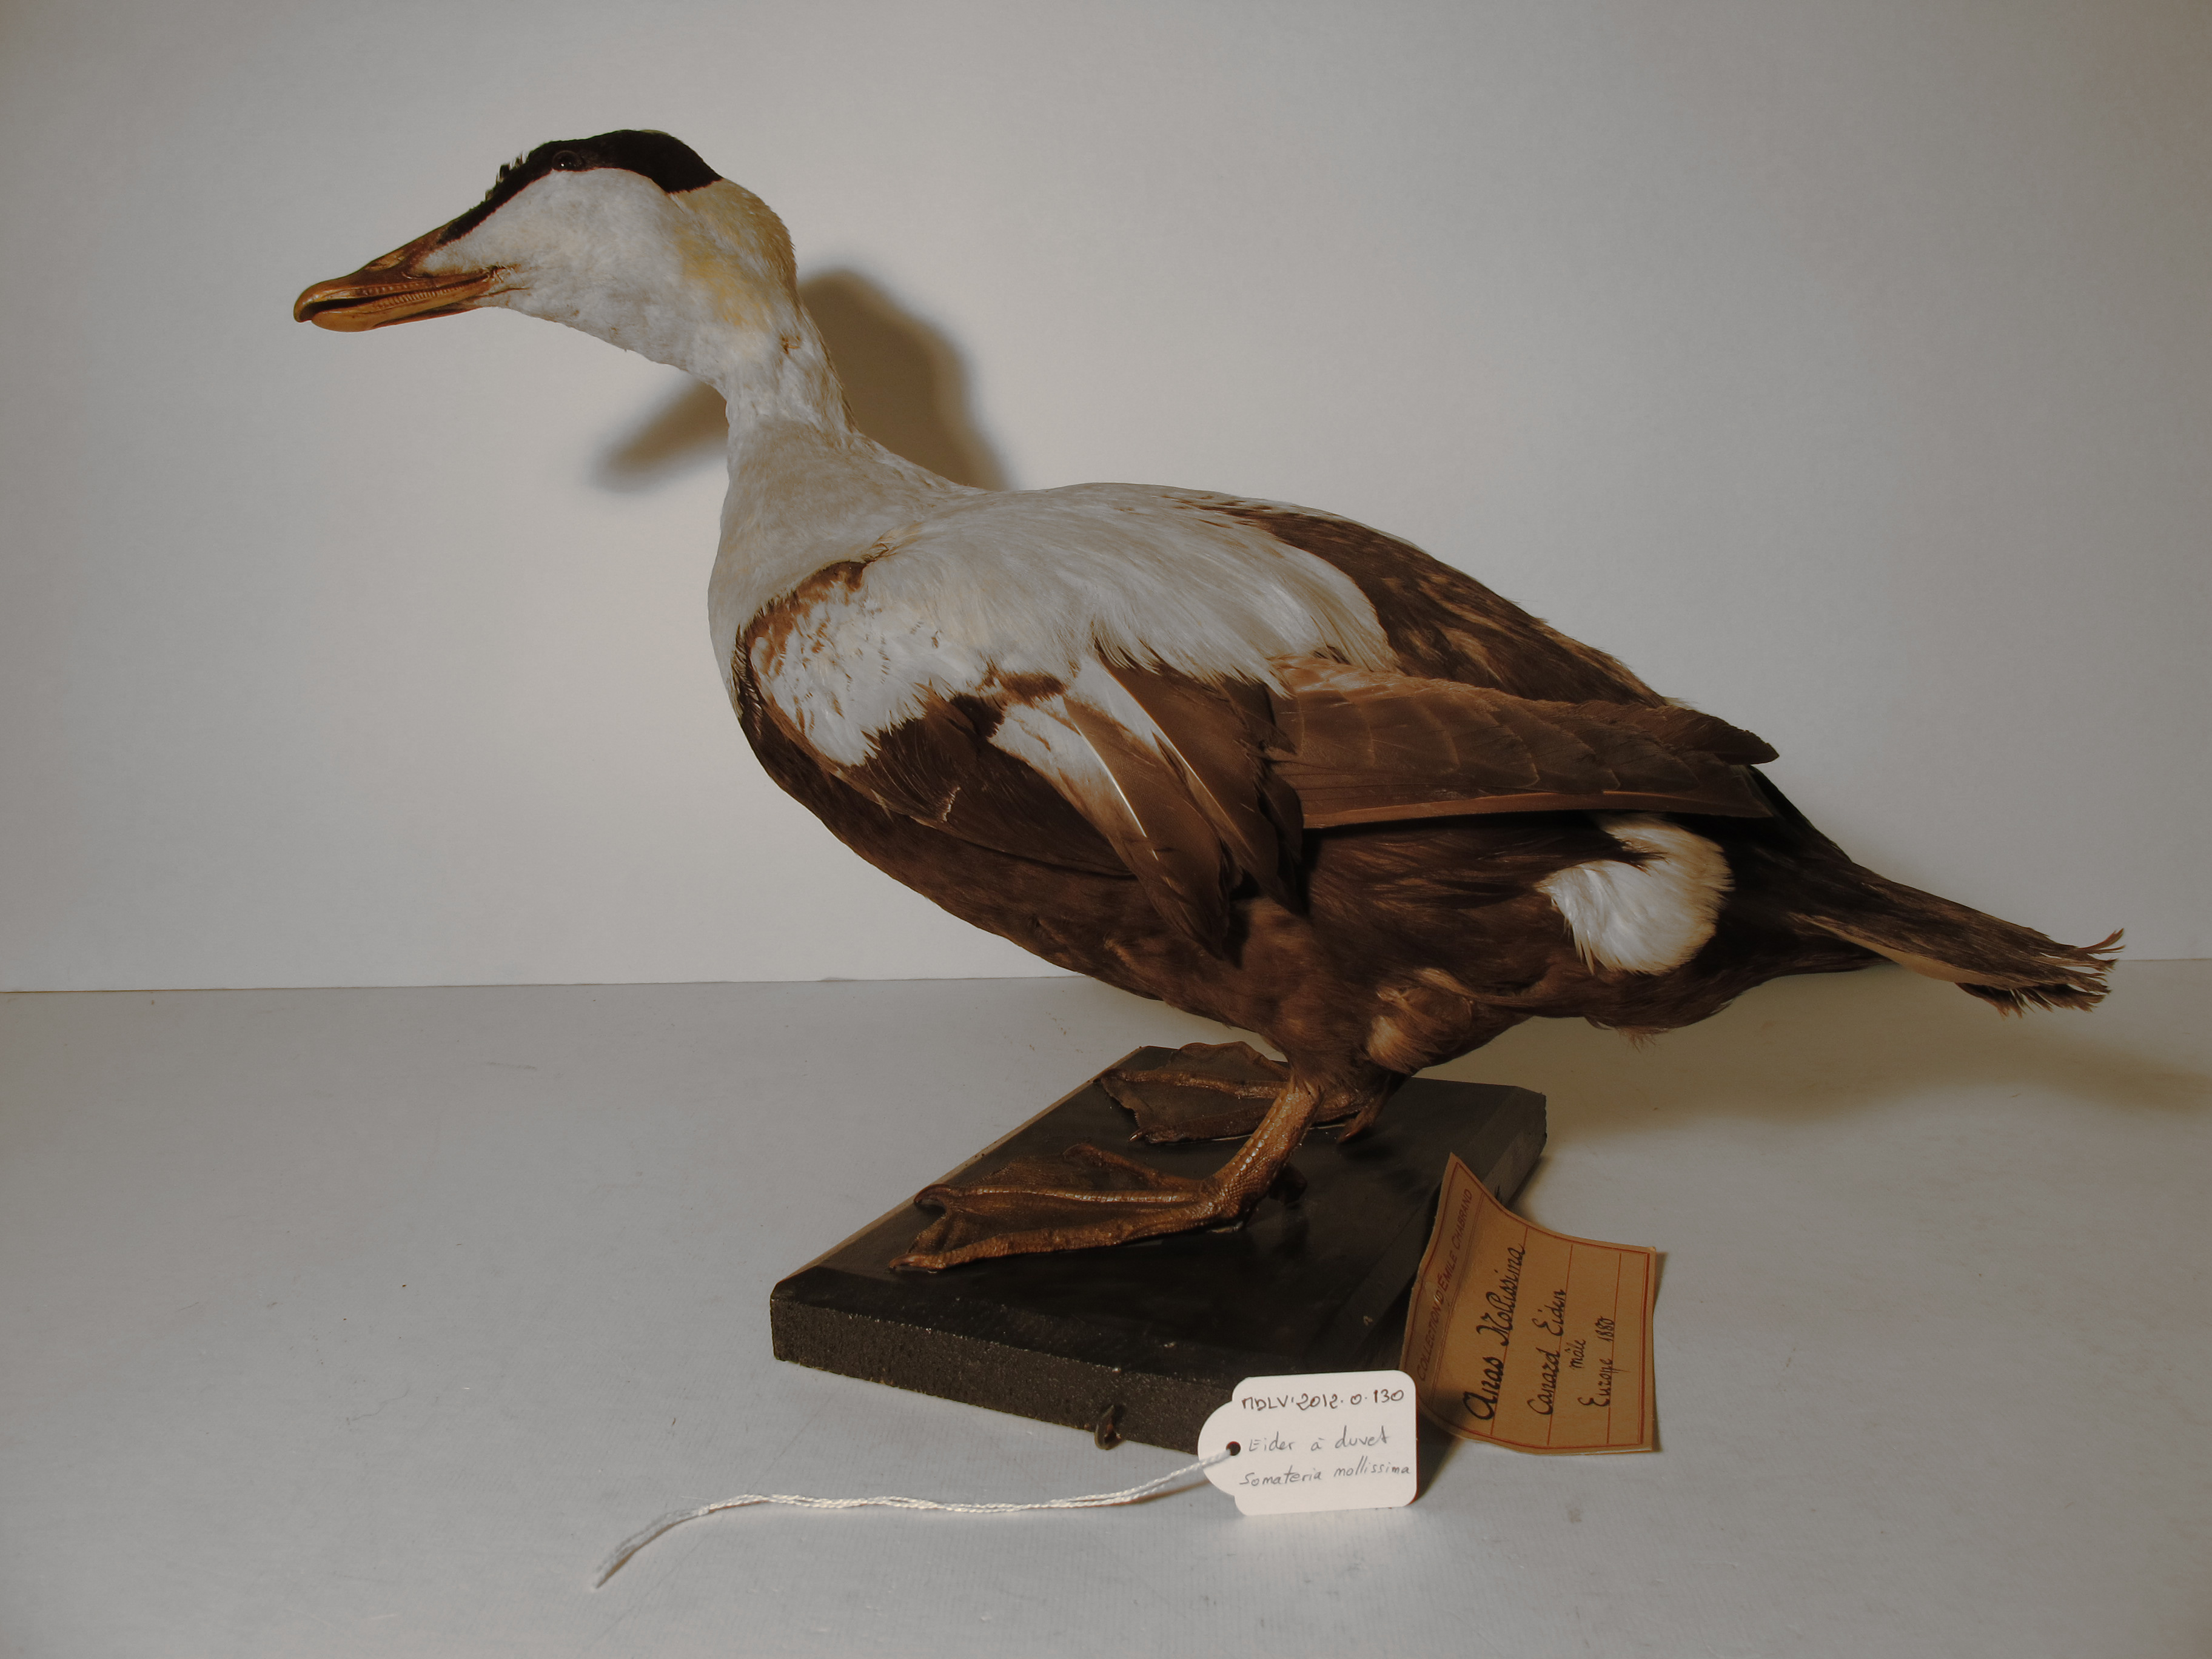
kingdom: Animalia
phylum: Chordata
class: Aves
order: Anseriformes
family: Anatidae
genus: Somateria
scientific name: Somateria mollissima
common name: Common Eider
